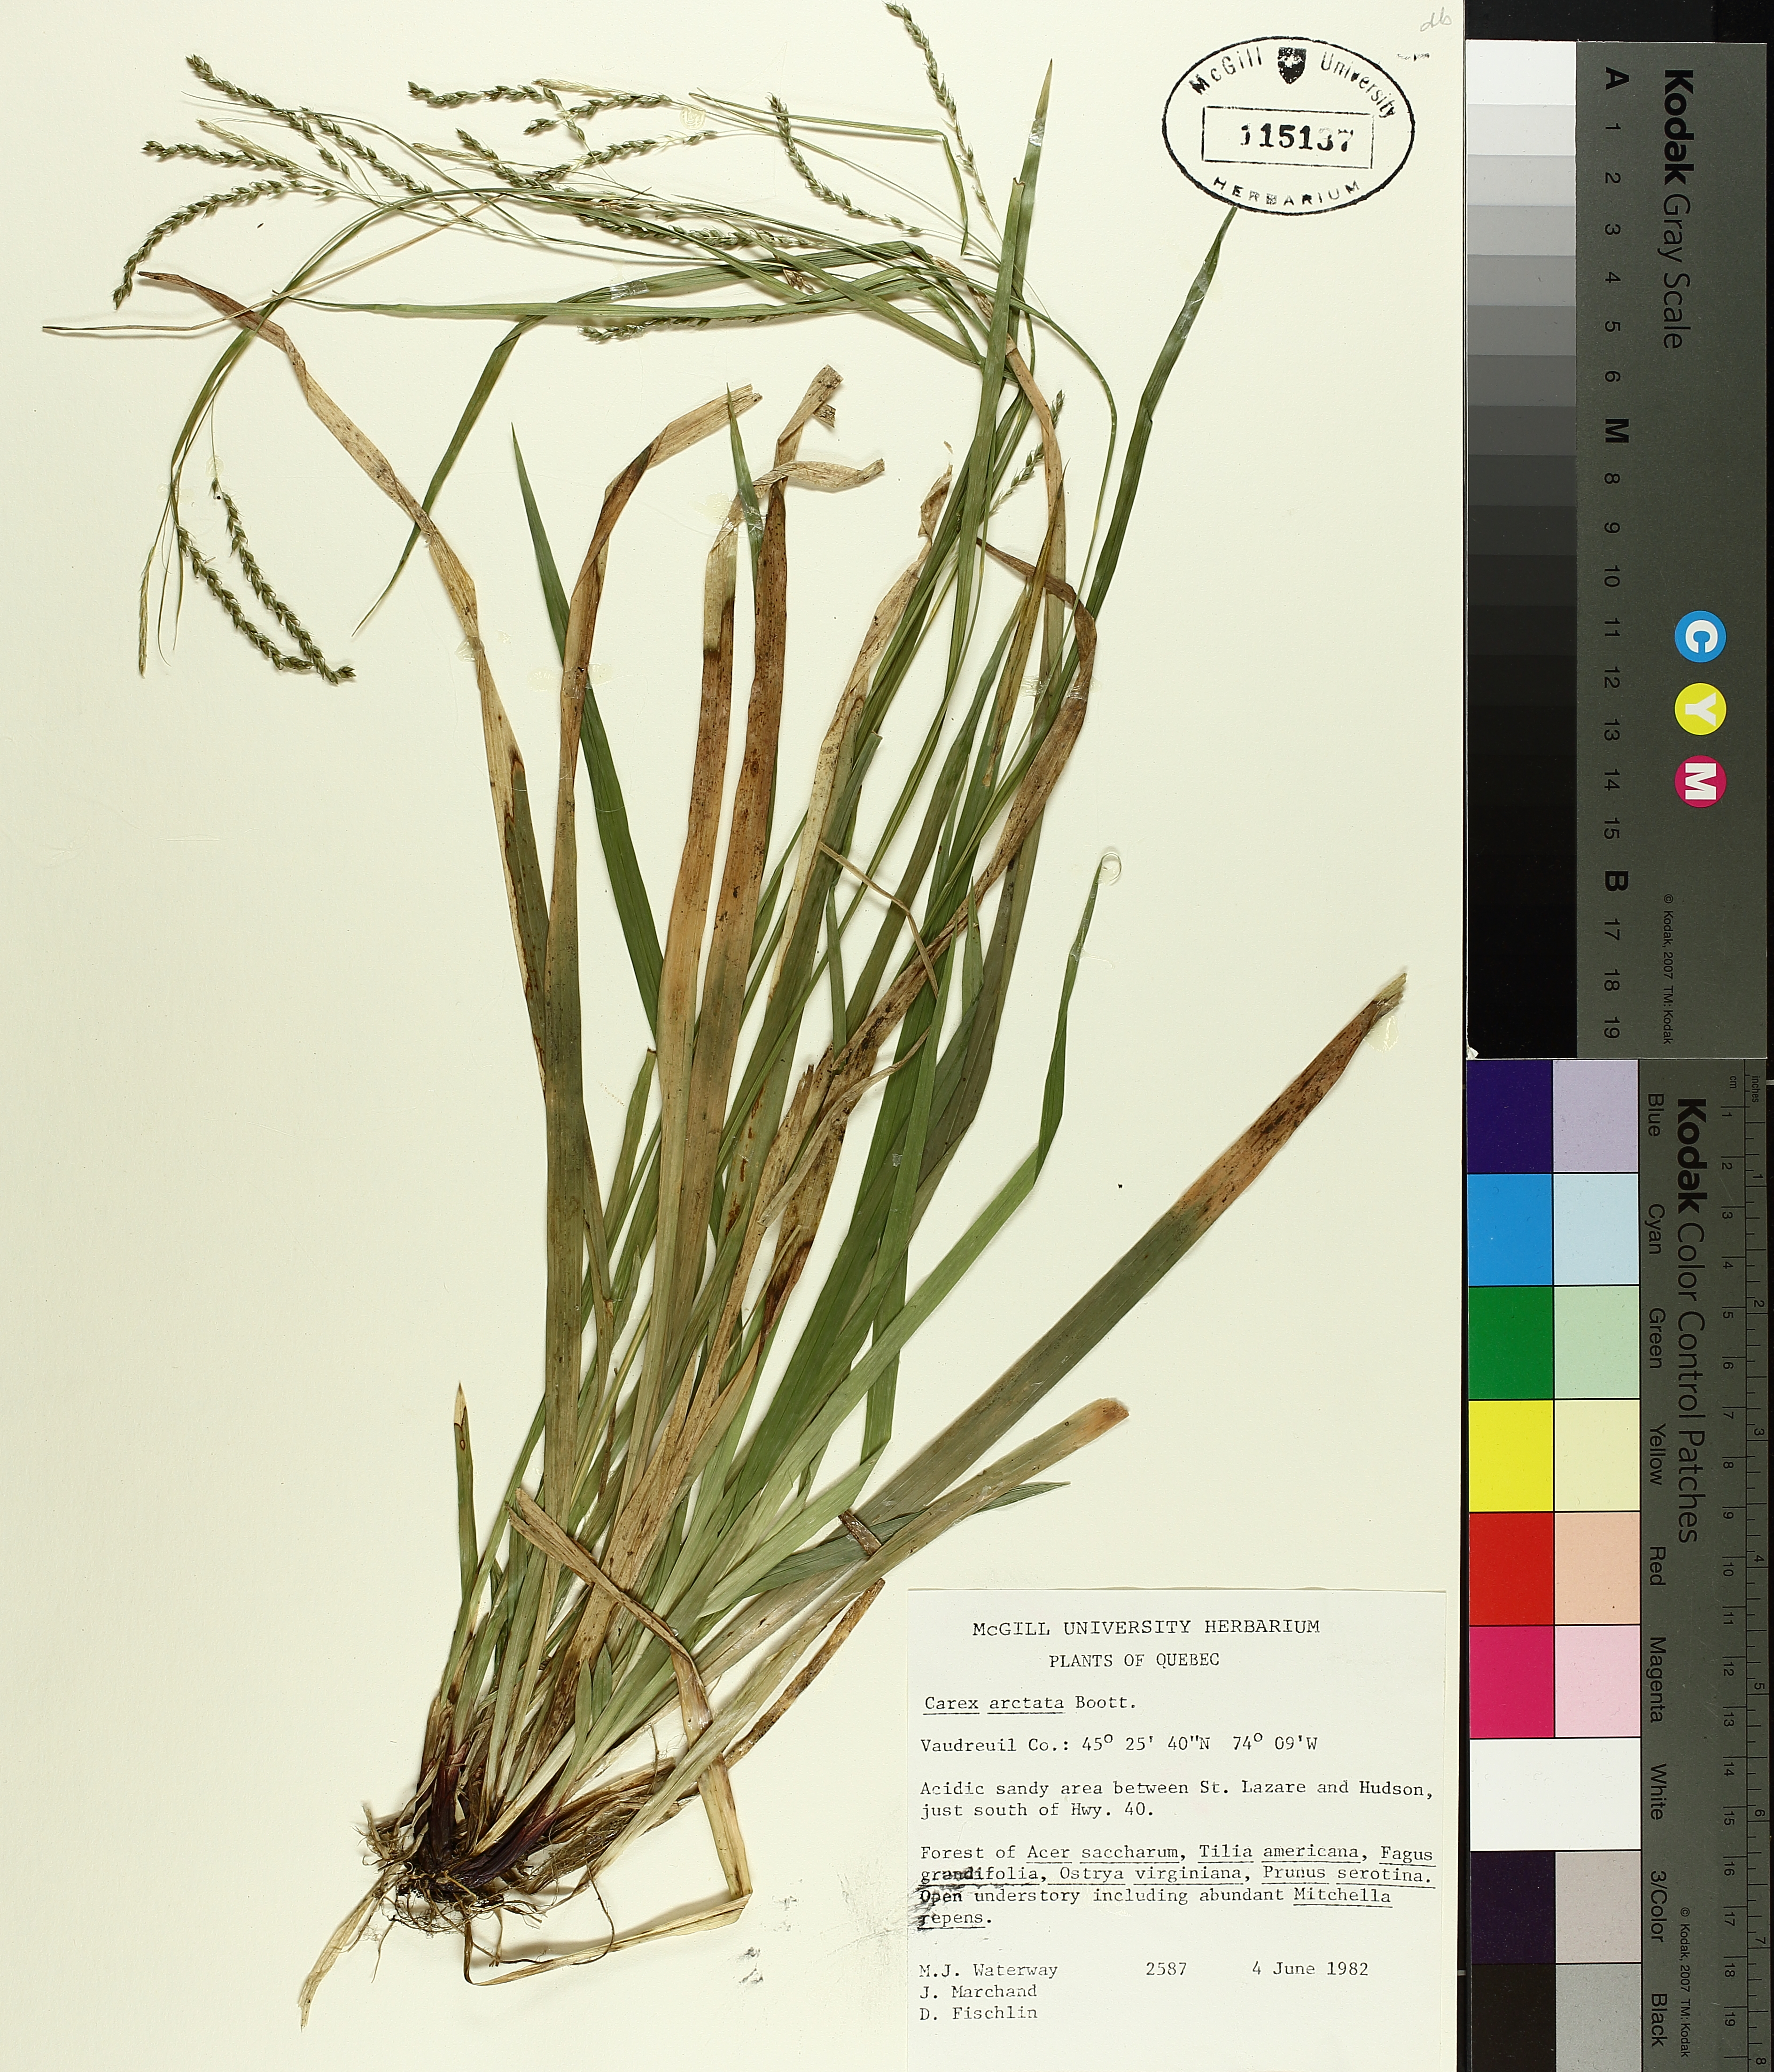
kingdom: Plantae
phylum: Tracheophyta
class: Liliopsida
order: Poales
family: Cyperaceae
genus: Carex
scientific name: Carex arctata
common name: Black sedge
